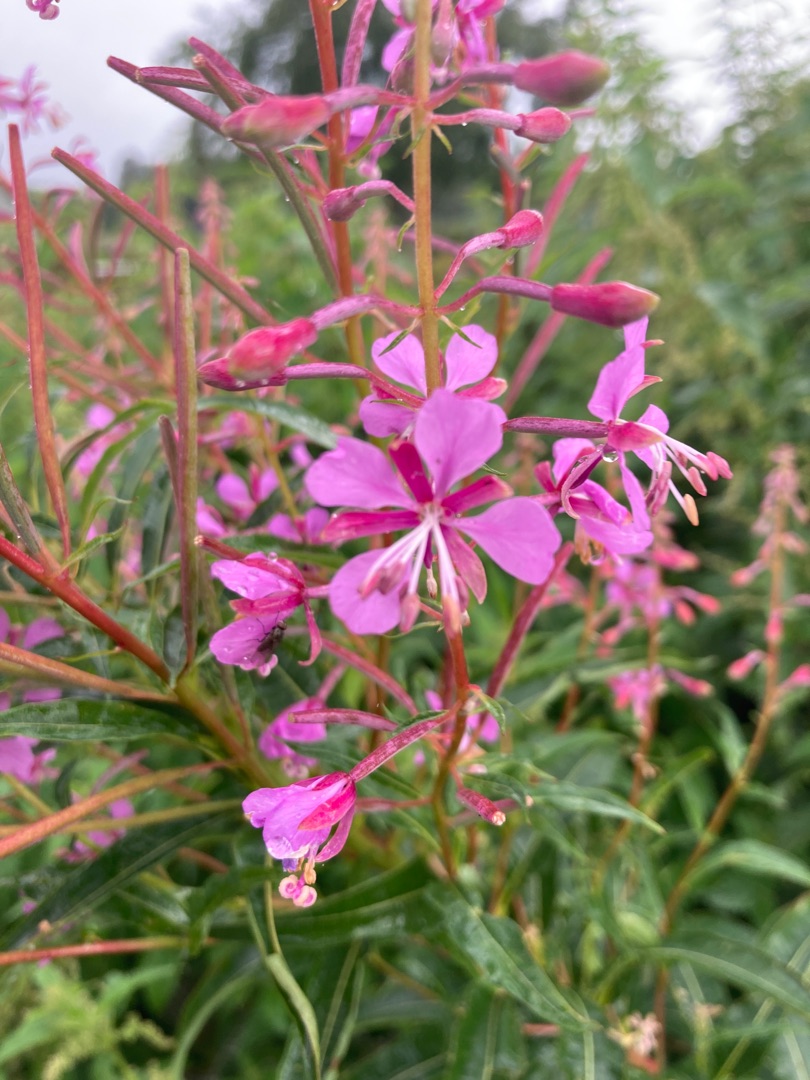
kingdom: Plantae
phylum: Tracheophyta
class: Magnoliopsida
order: Myrtales
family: Onagraceae
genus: Chamaenerion
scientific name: Chamaenerion angustifolium
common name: Gederams
